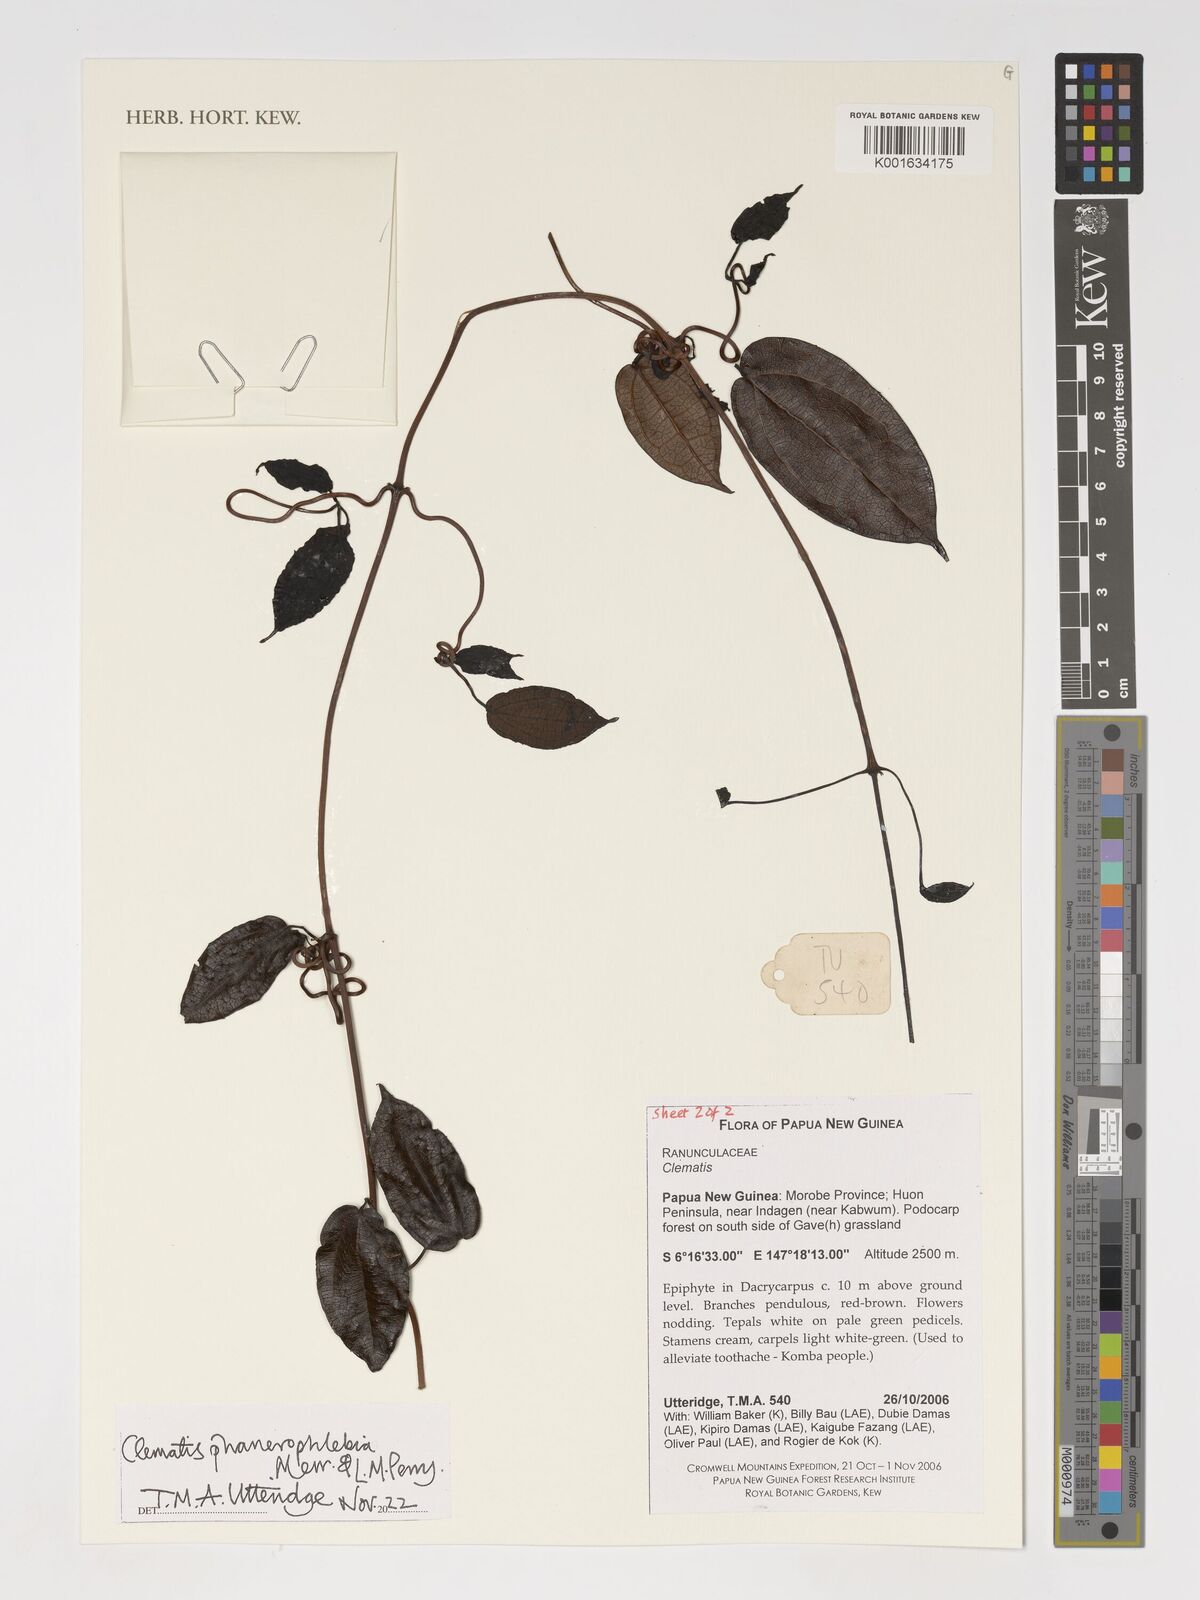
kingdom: Plantae
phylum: Tracheophyta
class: Magnoliopsida
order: Ranunculales
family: Ranunculaceae
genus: Clematis
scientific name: Clematis phanerophlebia
